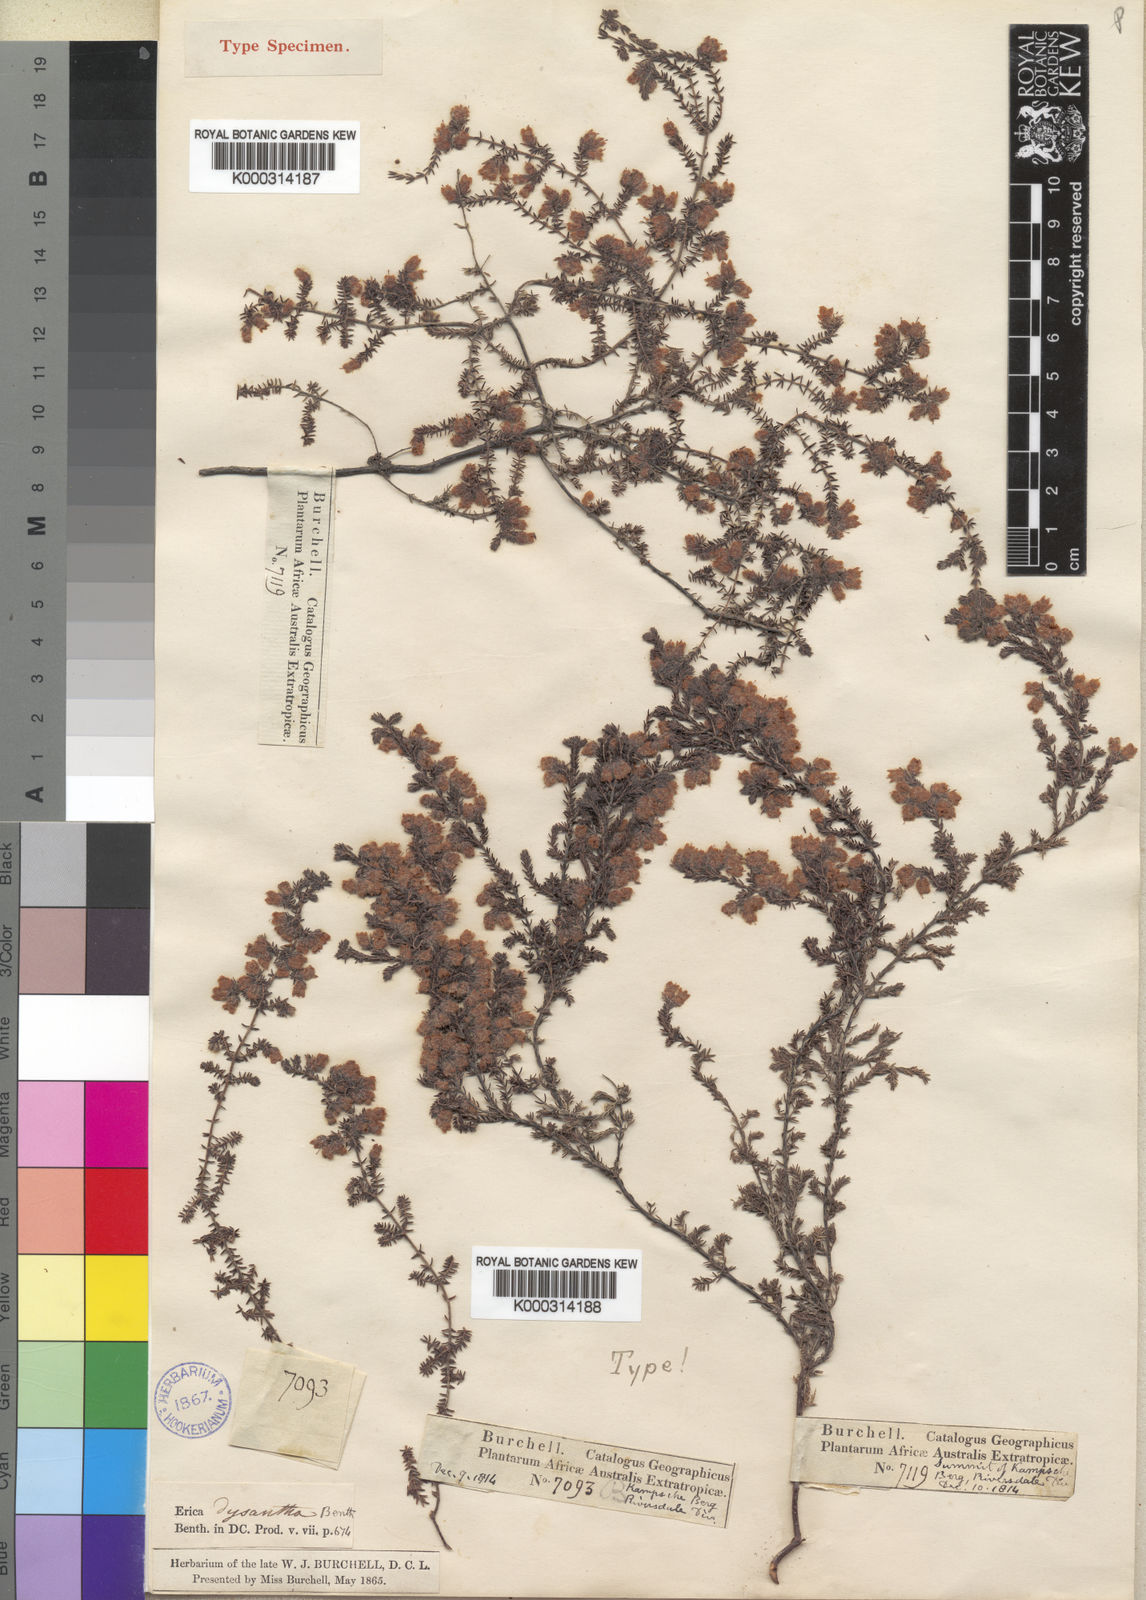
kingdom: Plantae
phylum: Tracheophyta
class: Magnoliopsida
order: Ericales
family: Ericaceae
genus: Erica
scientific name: Erica dysantha
